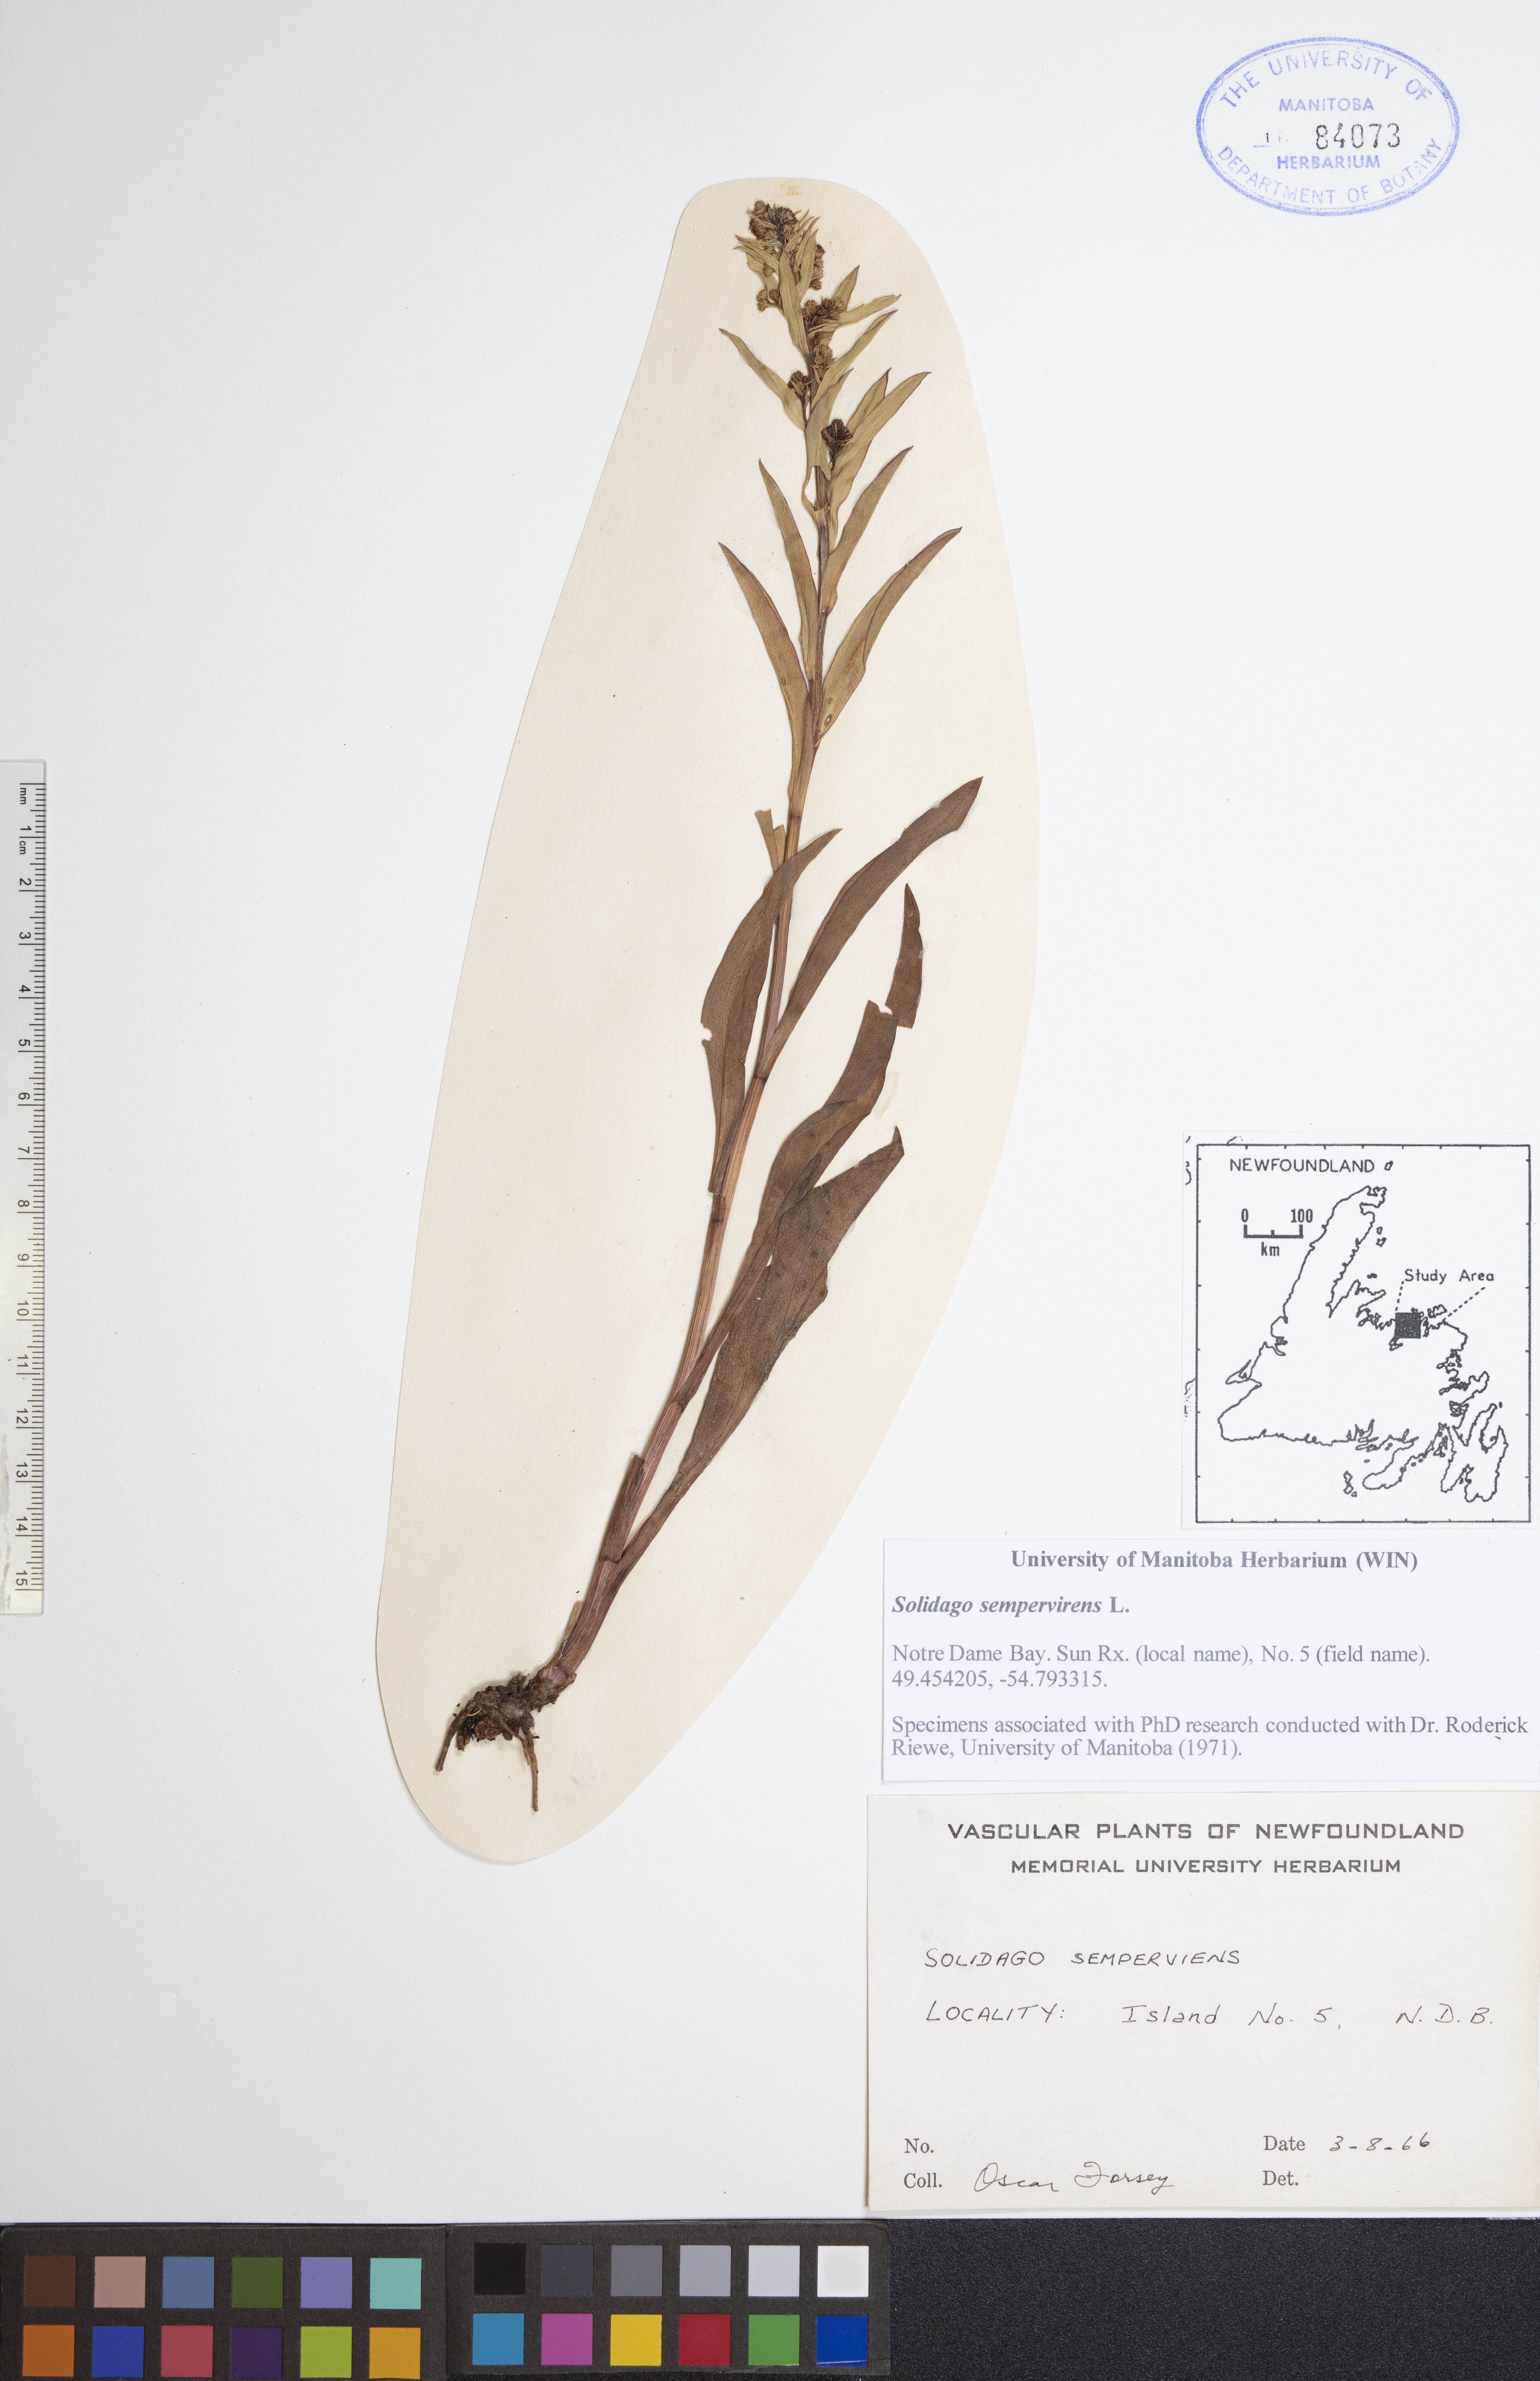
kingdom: Plantae
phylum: Tracheophyta
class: Magnoliopsida
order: Asterales
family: Asteraceae
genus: Solidago
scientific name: Solidago sempervirens
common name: Salt-marsh goldenrod
